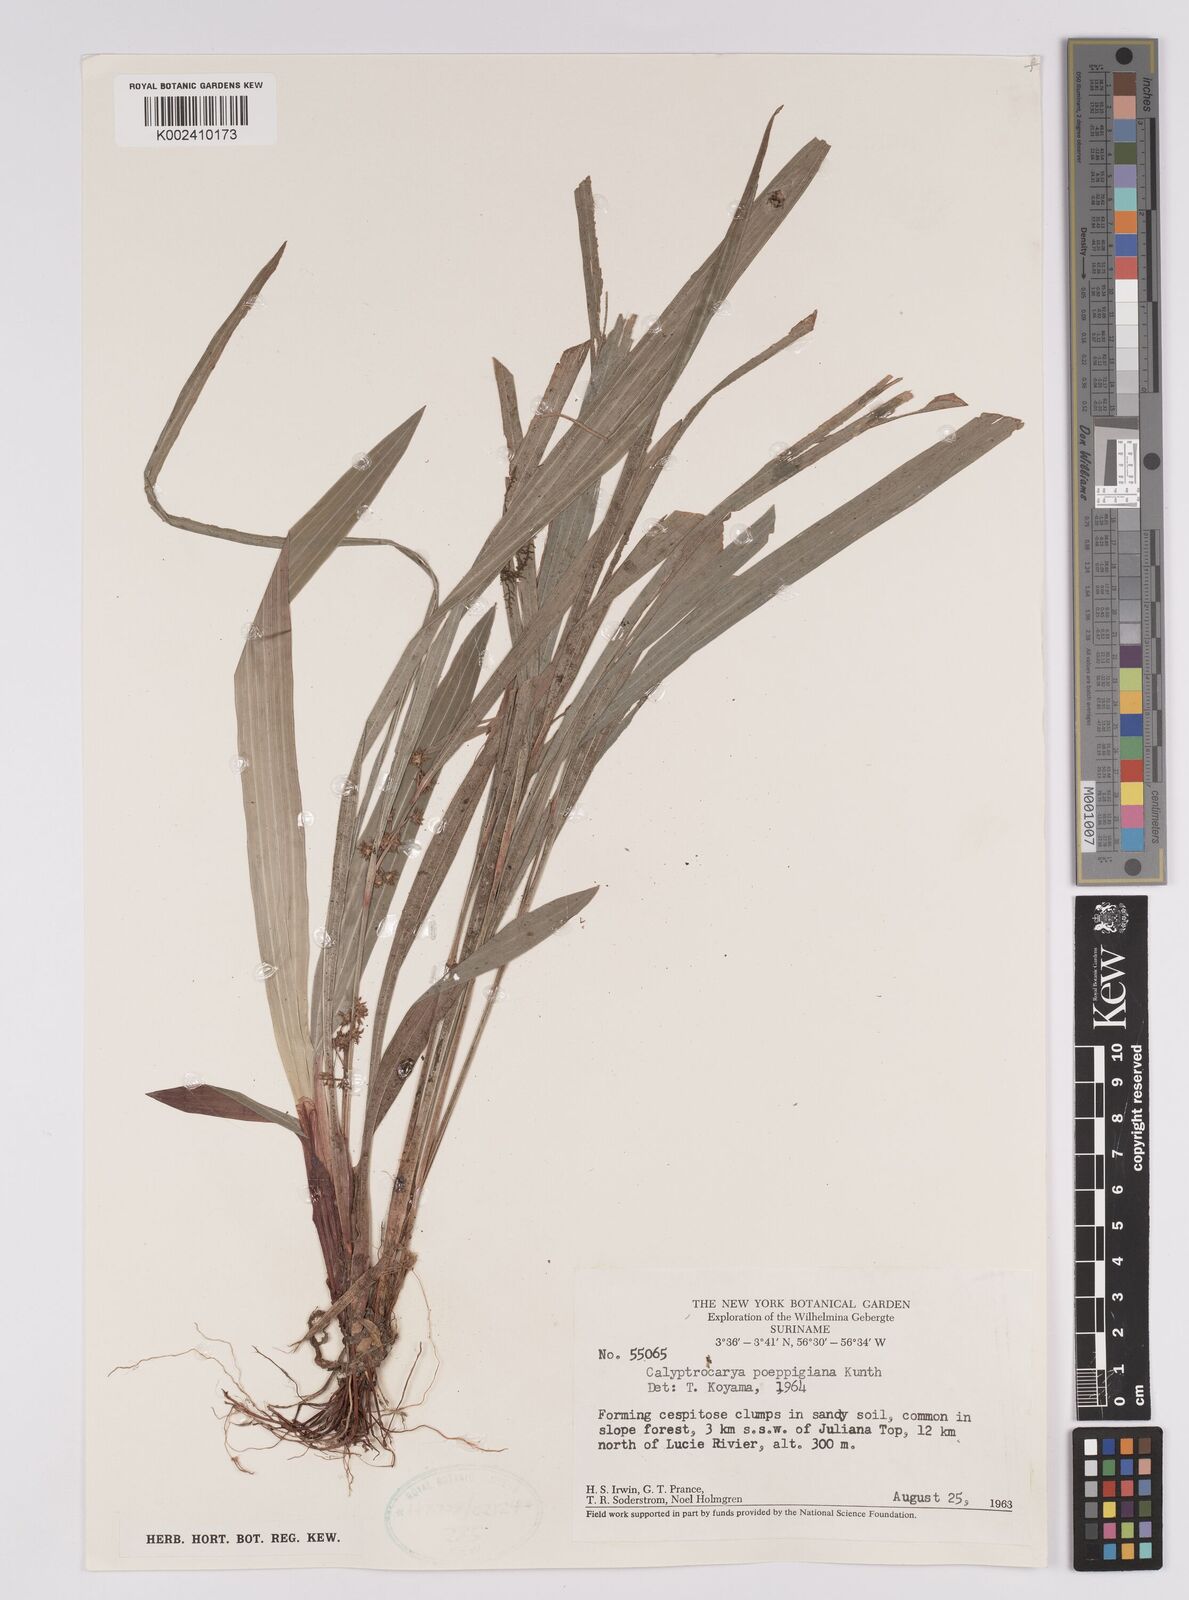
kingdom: Plantae
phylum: Tracheophyta
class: Liliopsida
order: Poales
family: Cyperaceae
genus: Calyptrocarya
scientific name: Calyptrocarya poeppigiana
